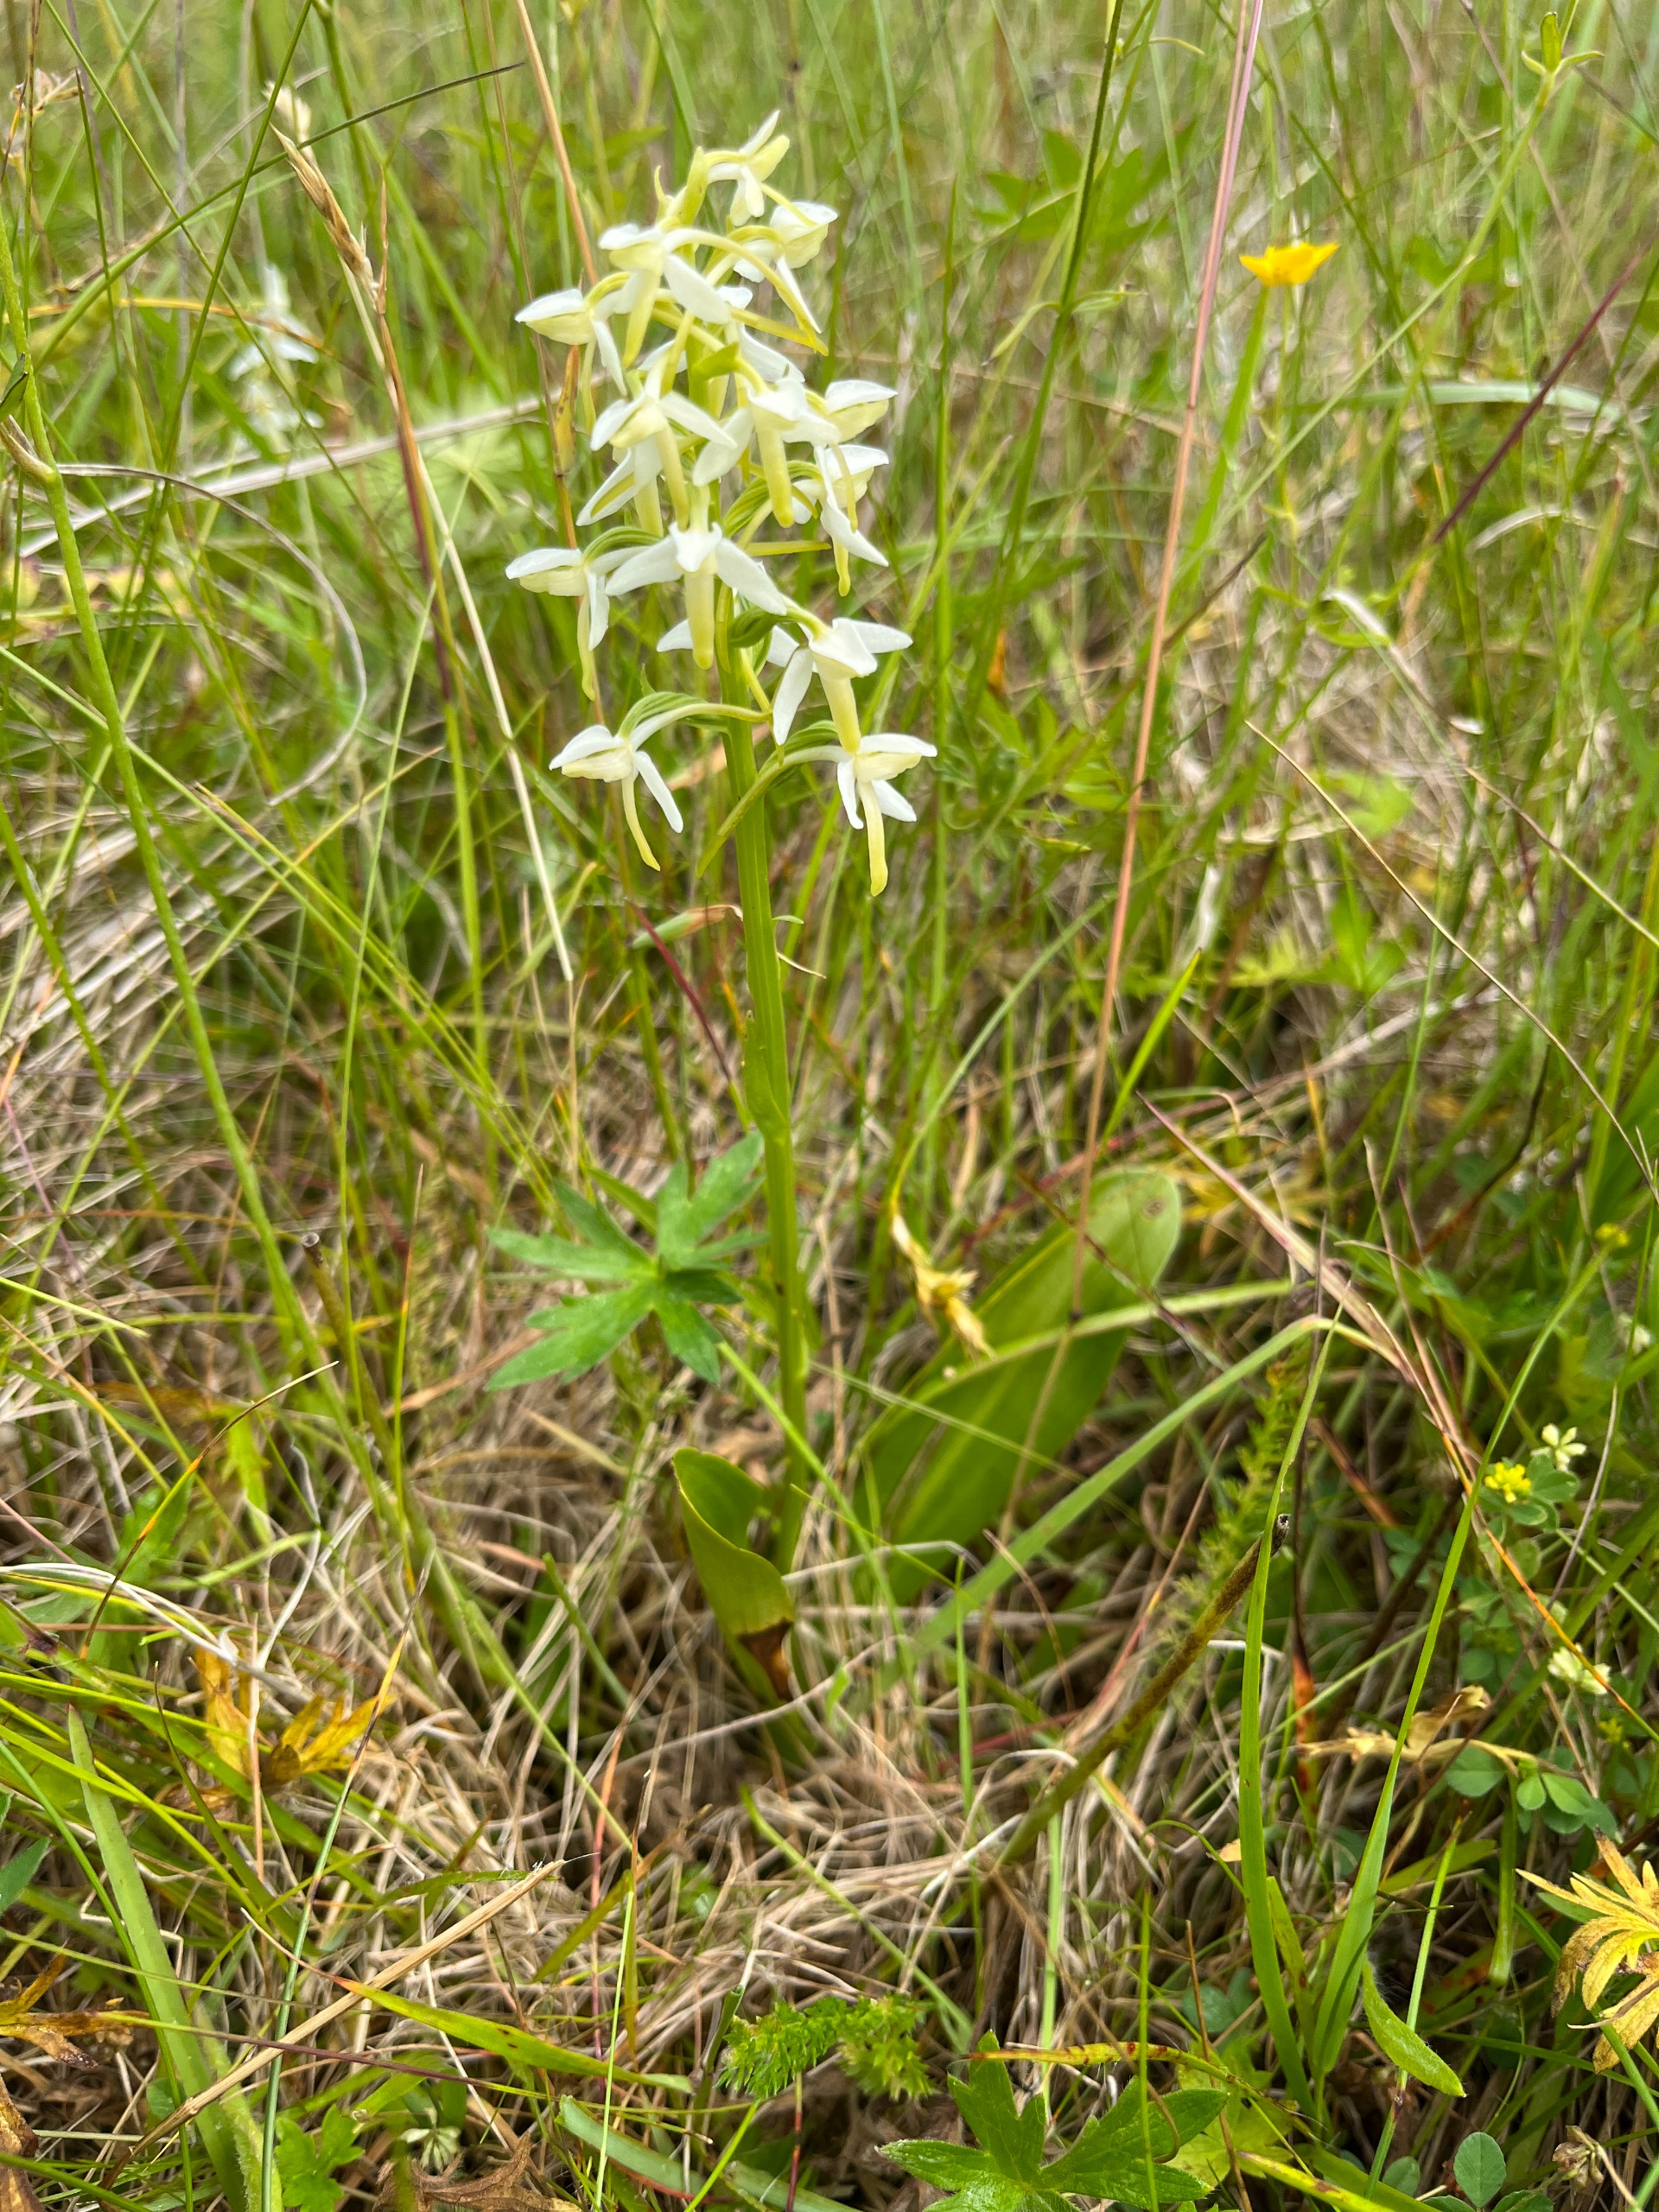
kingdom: Plantae
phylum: Tracheophyta
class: Liliopsida
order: Asparagales
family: Orchidaceae
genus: Platanthera
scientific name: Platanthera bifolia
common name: Bakke-gøgelilje
